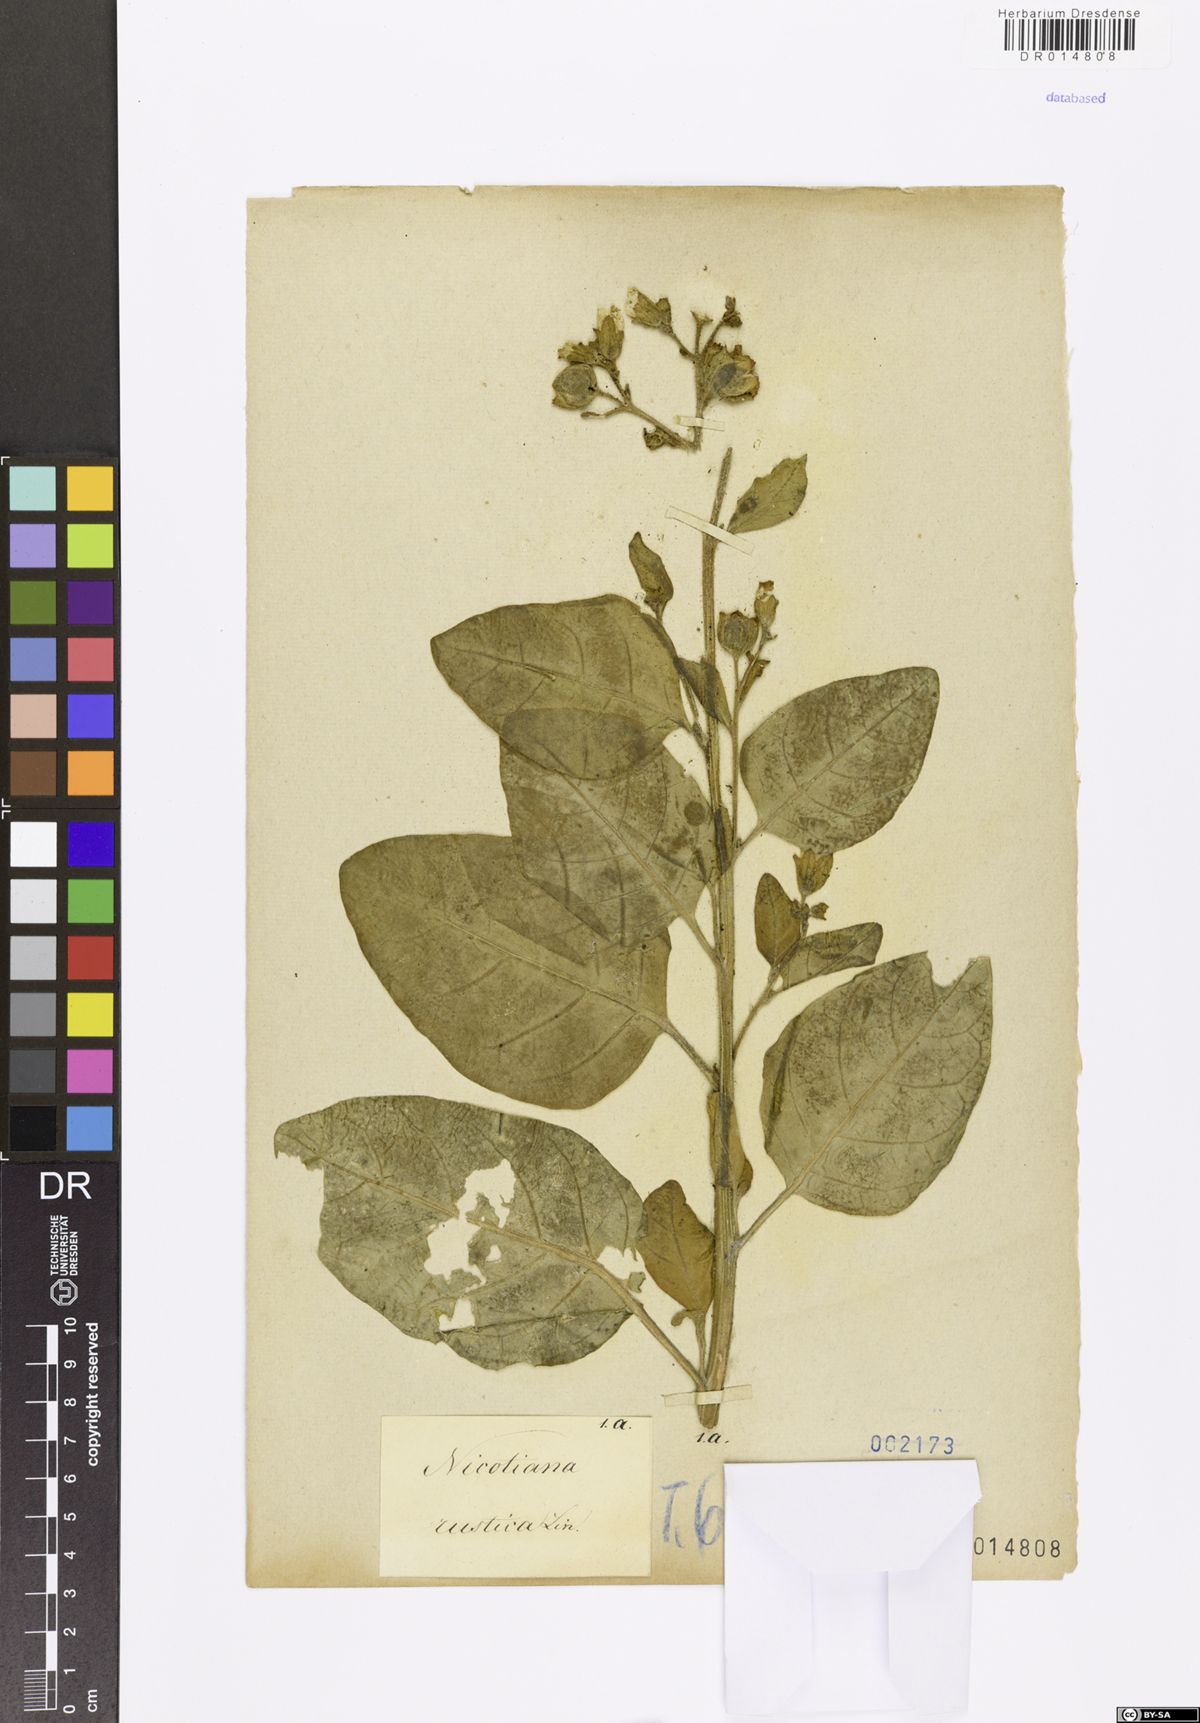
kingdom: Plantae
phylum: Tracheophyta
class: Magnoliopsida
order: Solanales
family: Solanaceae
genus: Nicotiana
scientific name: Nicotiana rustica
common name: Wild tobacco
